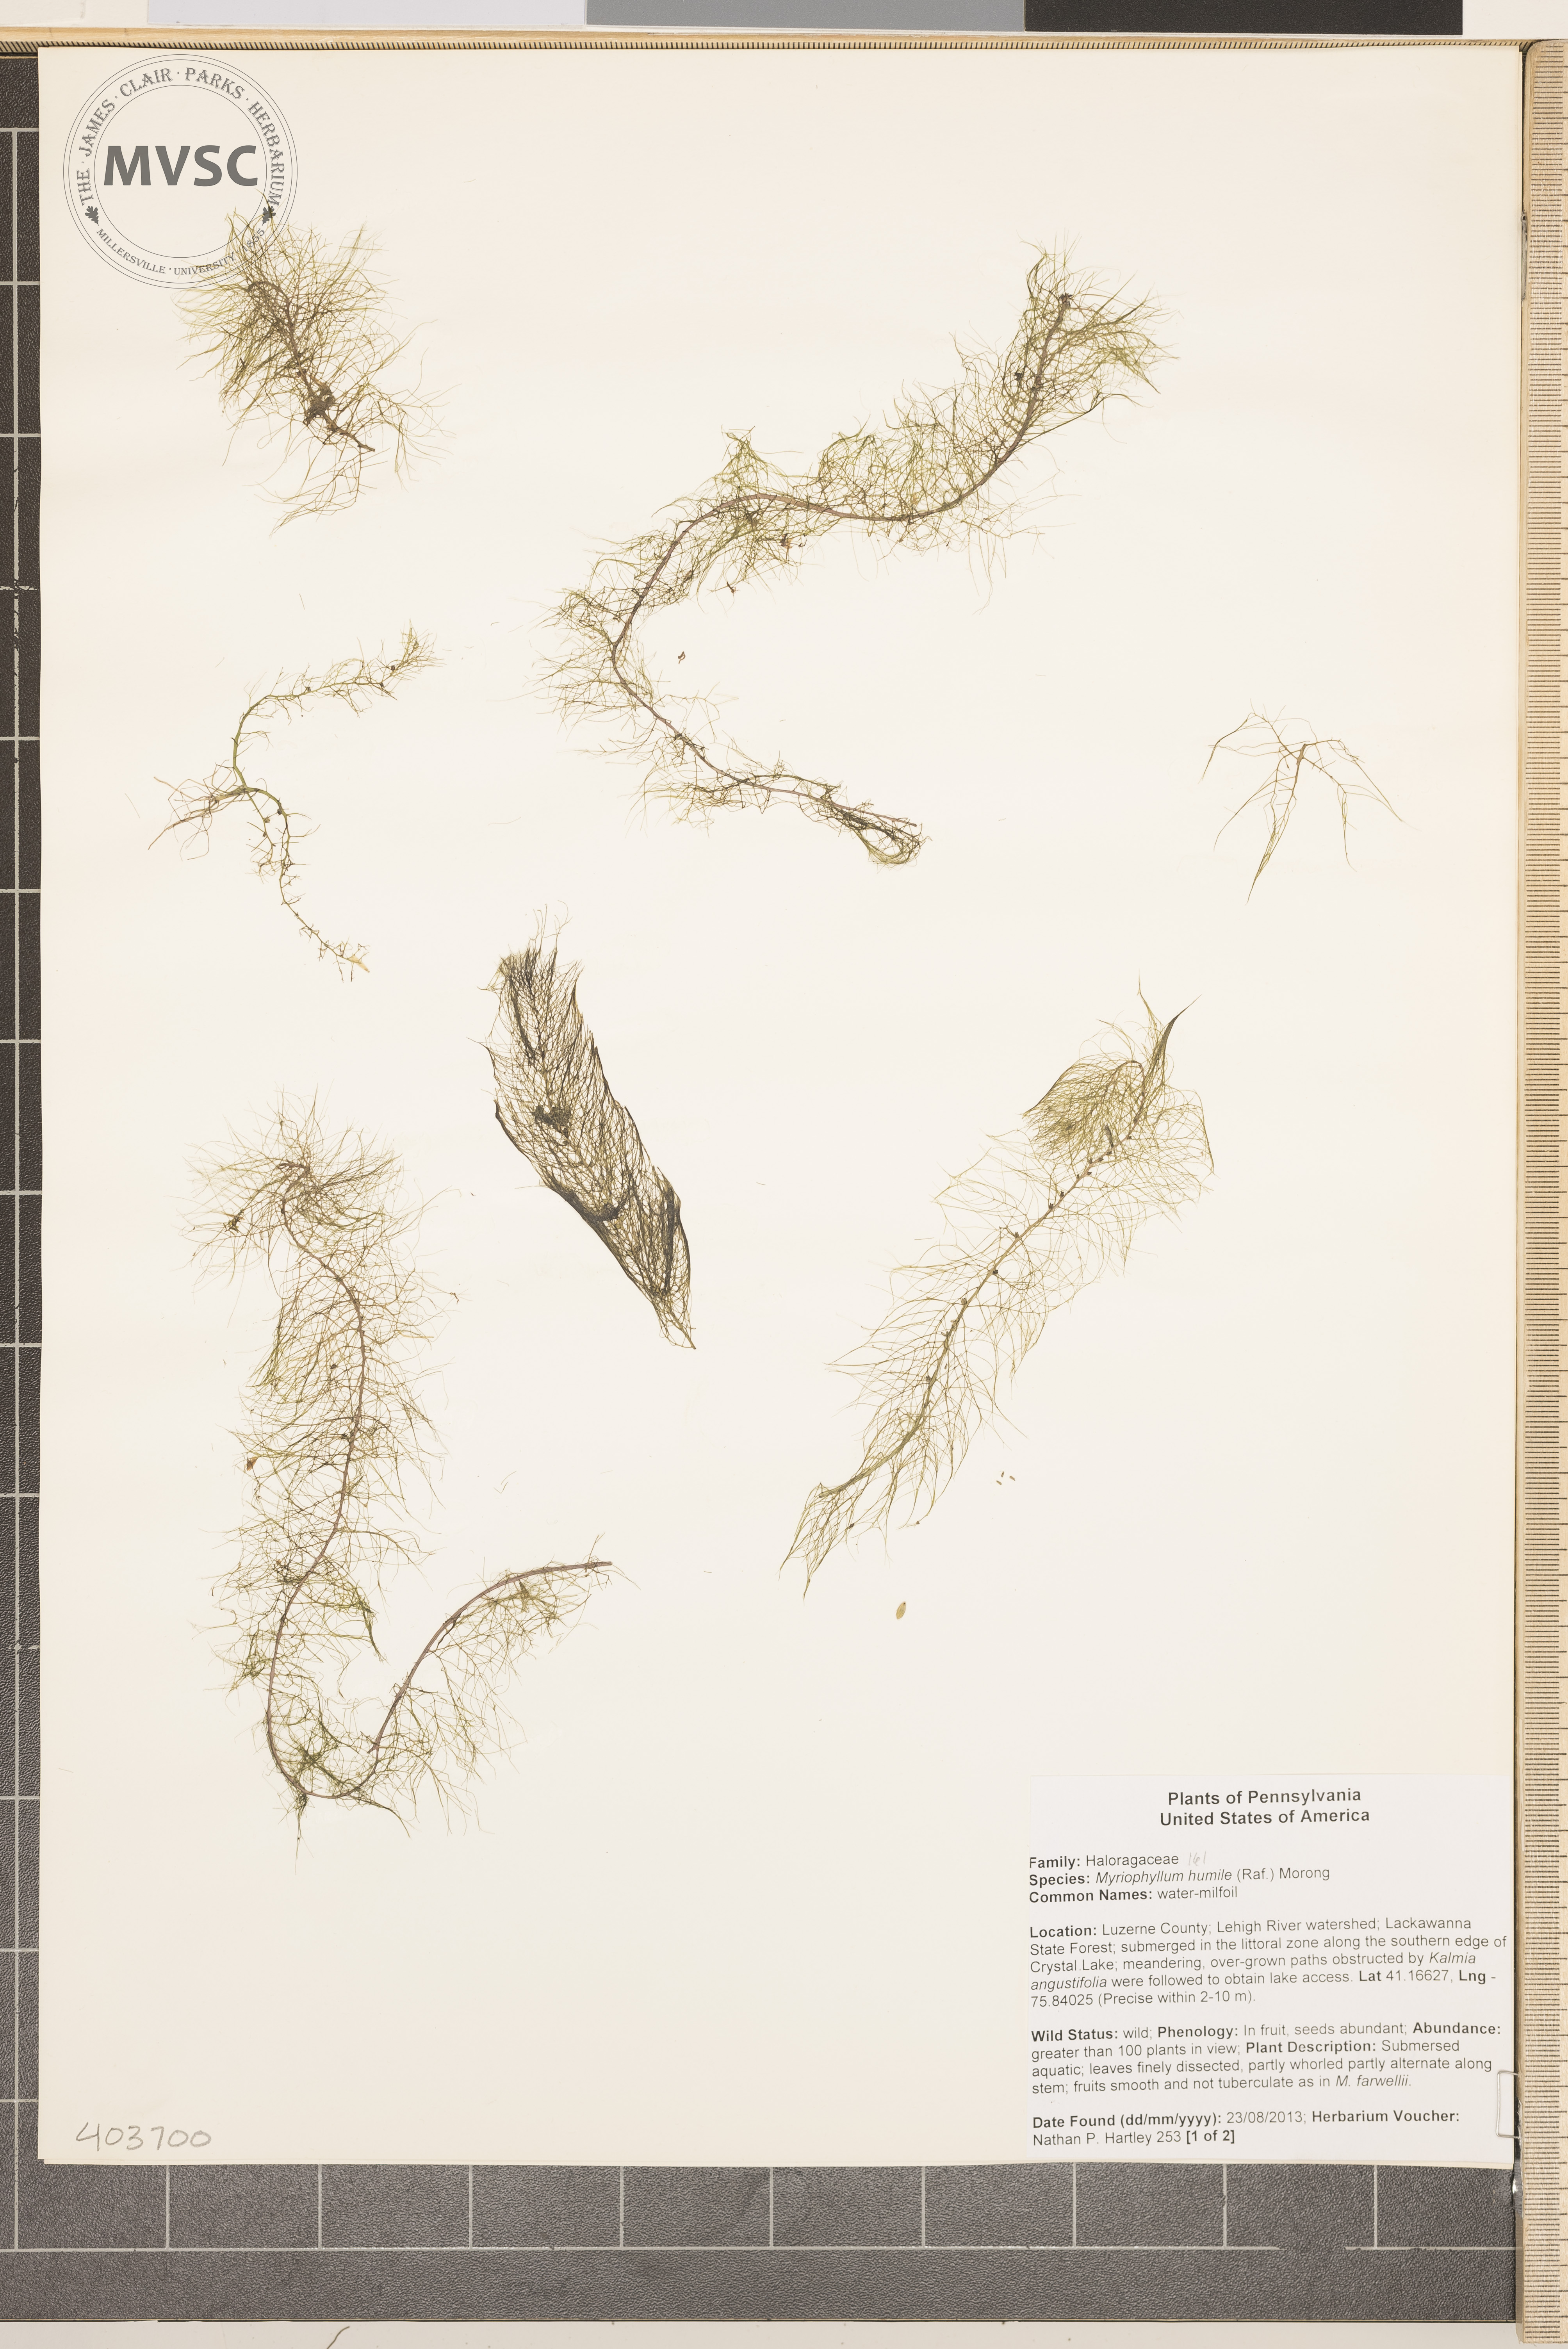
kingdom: Plantae
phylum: Tracheophyta
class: Magnoliopsida
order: Saxifragales
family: Haloragaceae
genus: Myriophyllum
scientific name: Myriophyllum humile
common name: water milfoil
